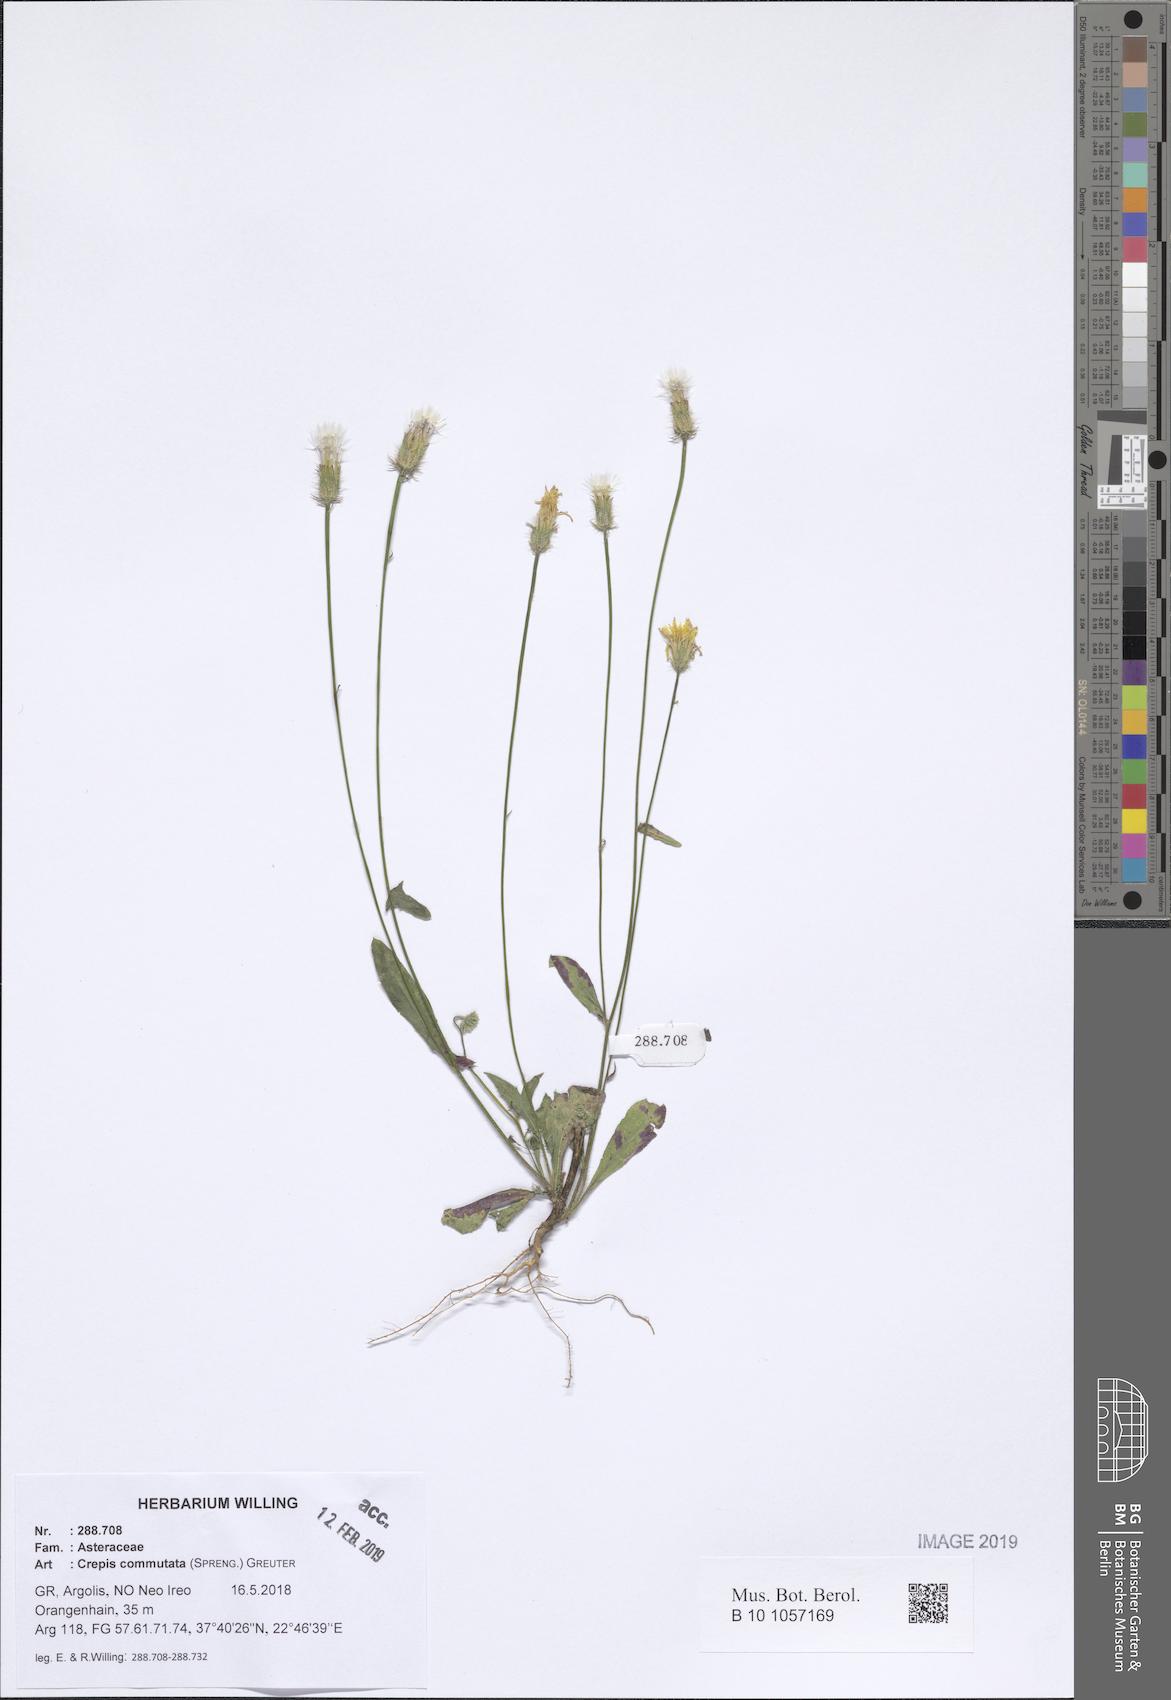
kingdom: Plantae
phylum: Tracheophyta
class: Magnoliopsida
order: Asterales
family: Asteraceae
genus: Crepis
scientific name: Crepis commutata
